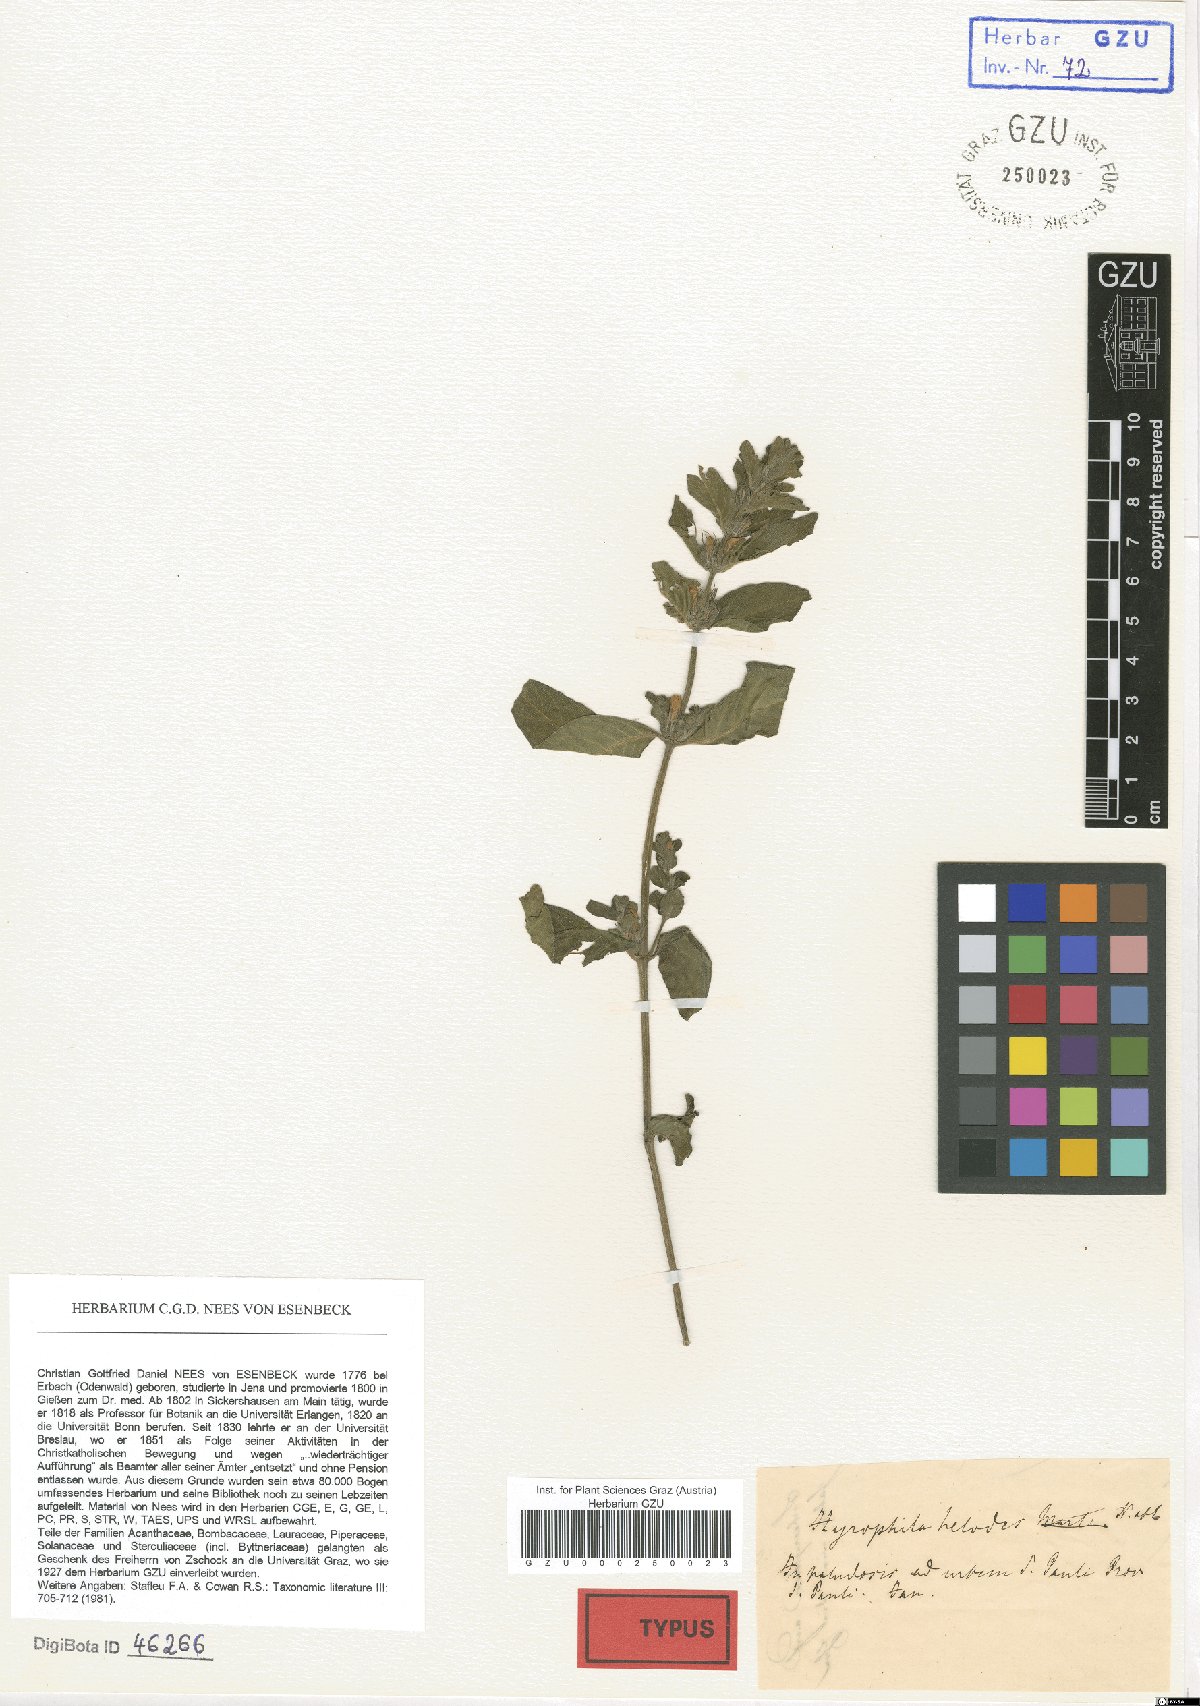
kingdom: Plantae
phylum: Tracheophyta
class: Magnoliopsida
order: Lamiales
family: Acanthaceae
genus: Hygrophila
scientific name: Hygrophila costata
